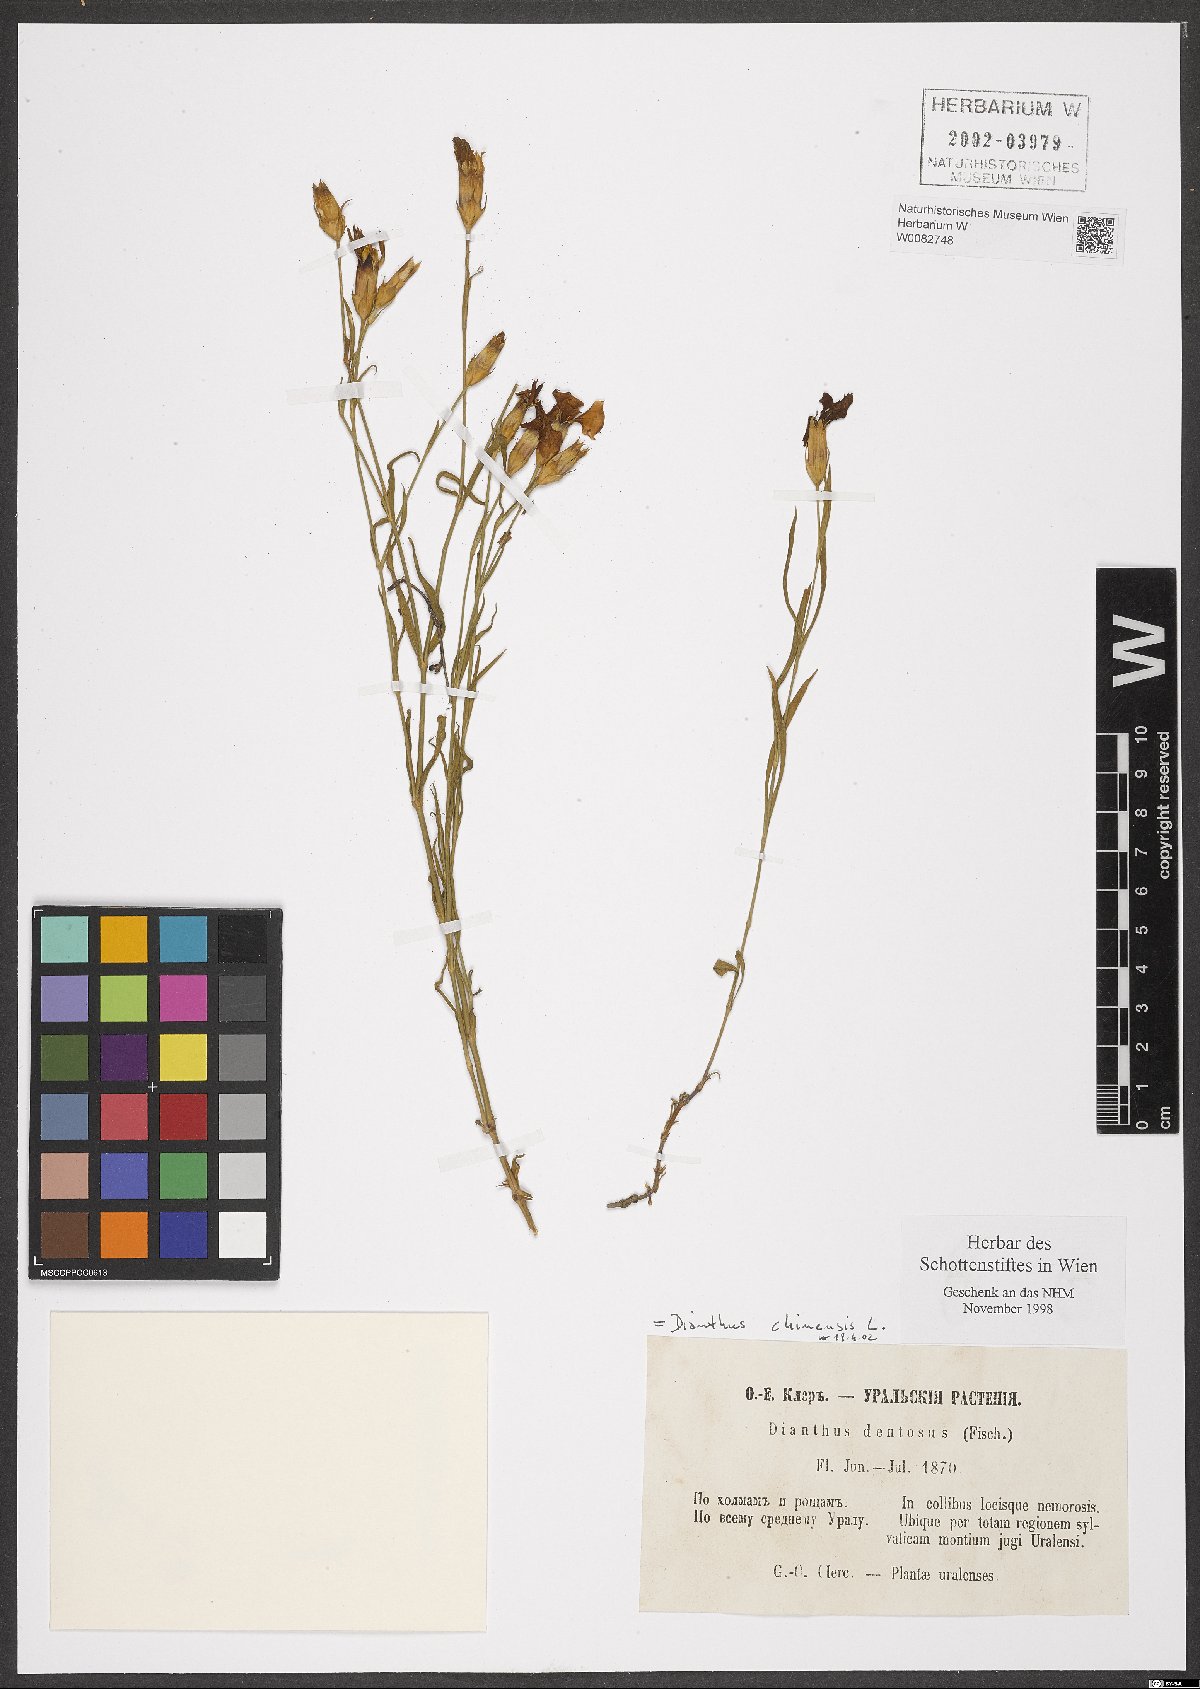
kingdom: Plantae
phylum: Tracheophyta
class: Magnoliopsida
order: Caryophyllales
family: Caryophyllaceae
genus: Dianthus
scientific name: Dianthus chinensis
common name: Rainbow pink
